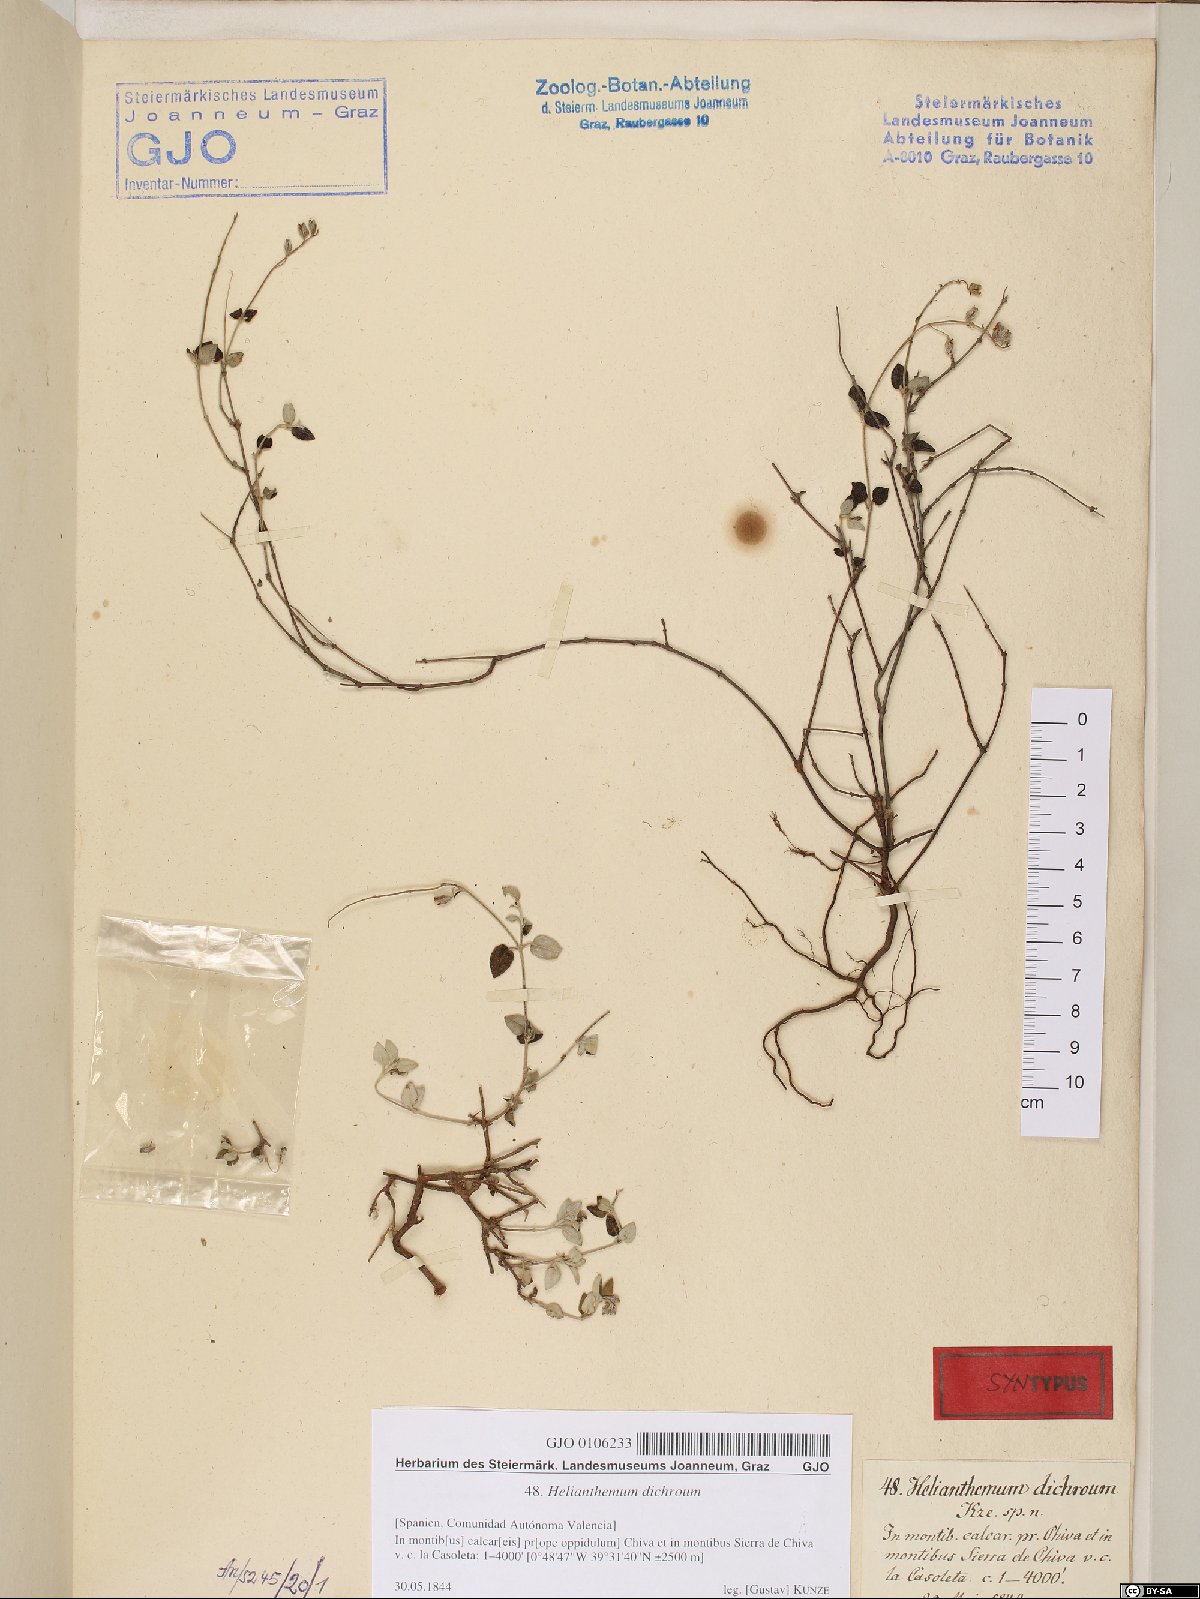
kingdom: Plantae
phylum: Tracheophyta
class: Magnoliopsida
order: Malvales
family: Cistaceae
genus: Helianthemum
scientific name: Helianthemum canum
